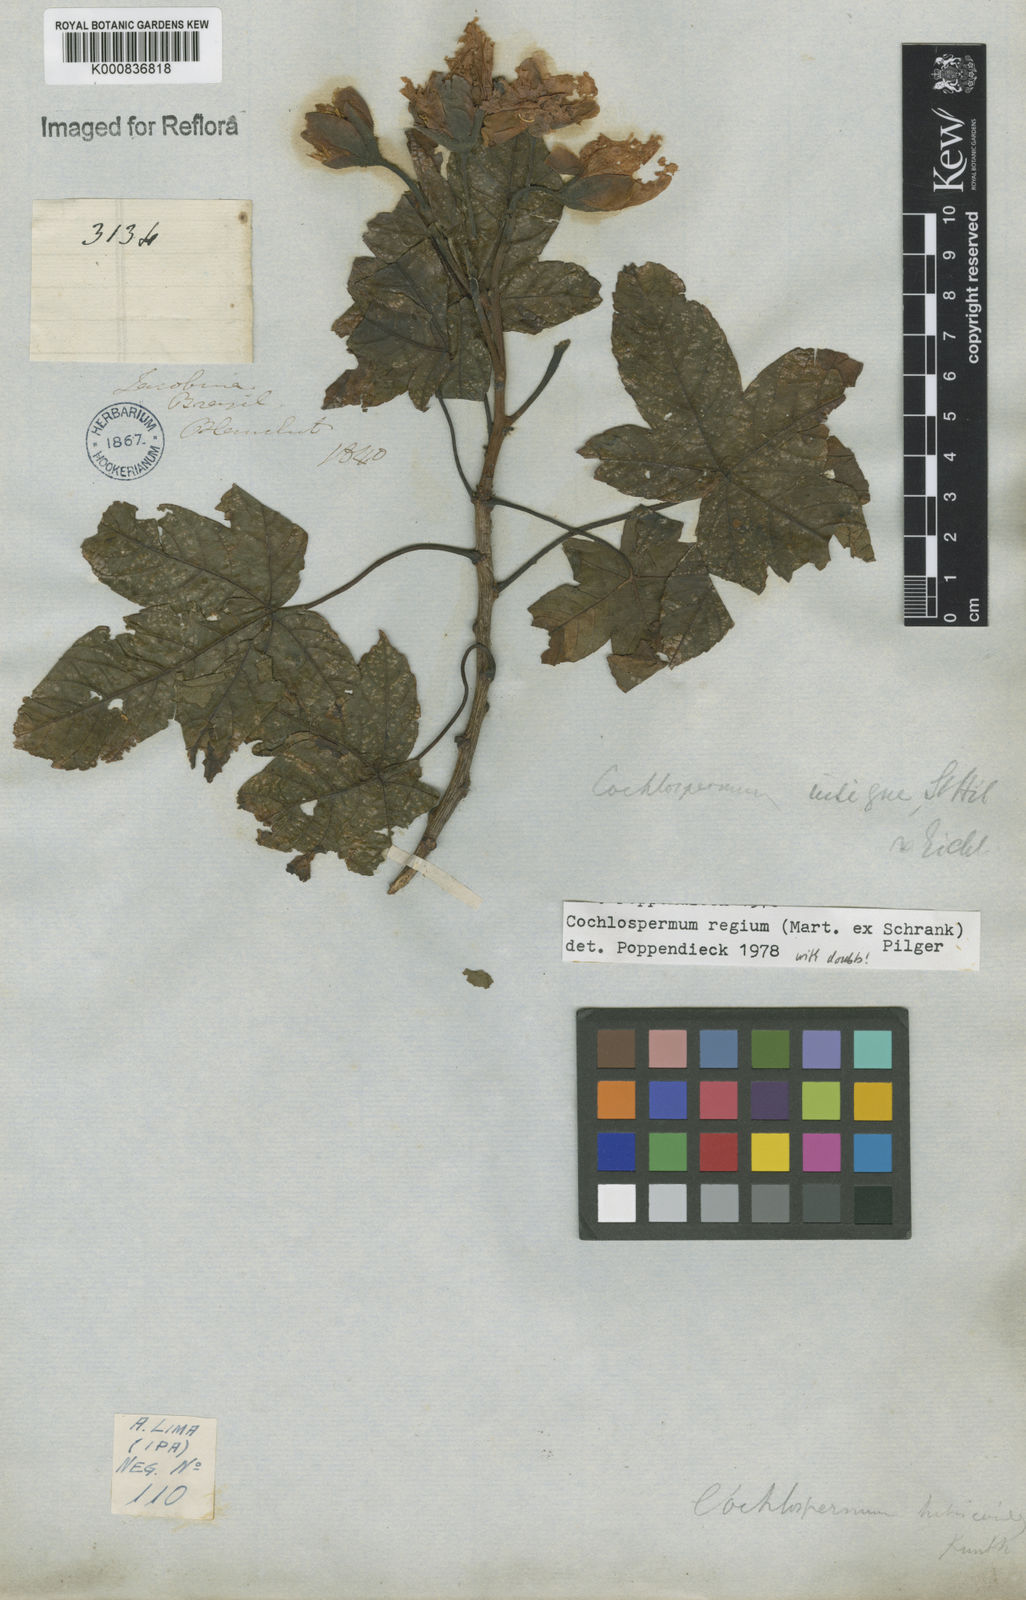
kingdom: Plantae
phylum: Tracheophyta
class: Magnoliopsida
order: Malvales
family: Cochlospermaceae
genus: Cochlospermum
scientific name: Cochlospermum regium
